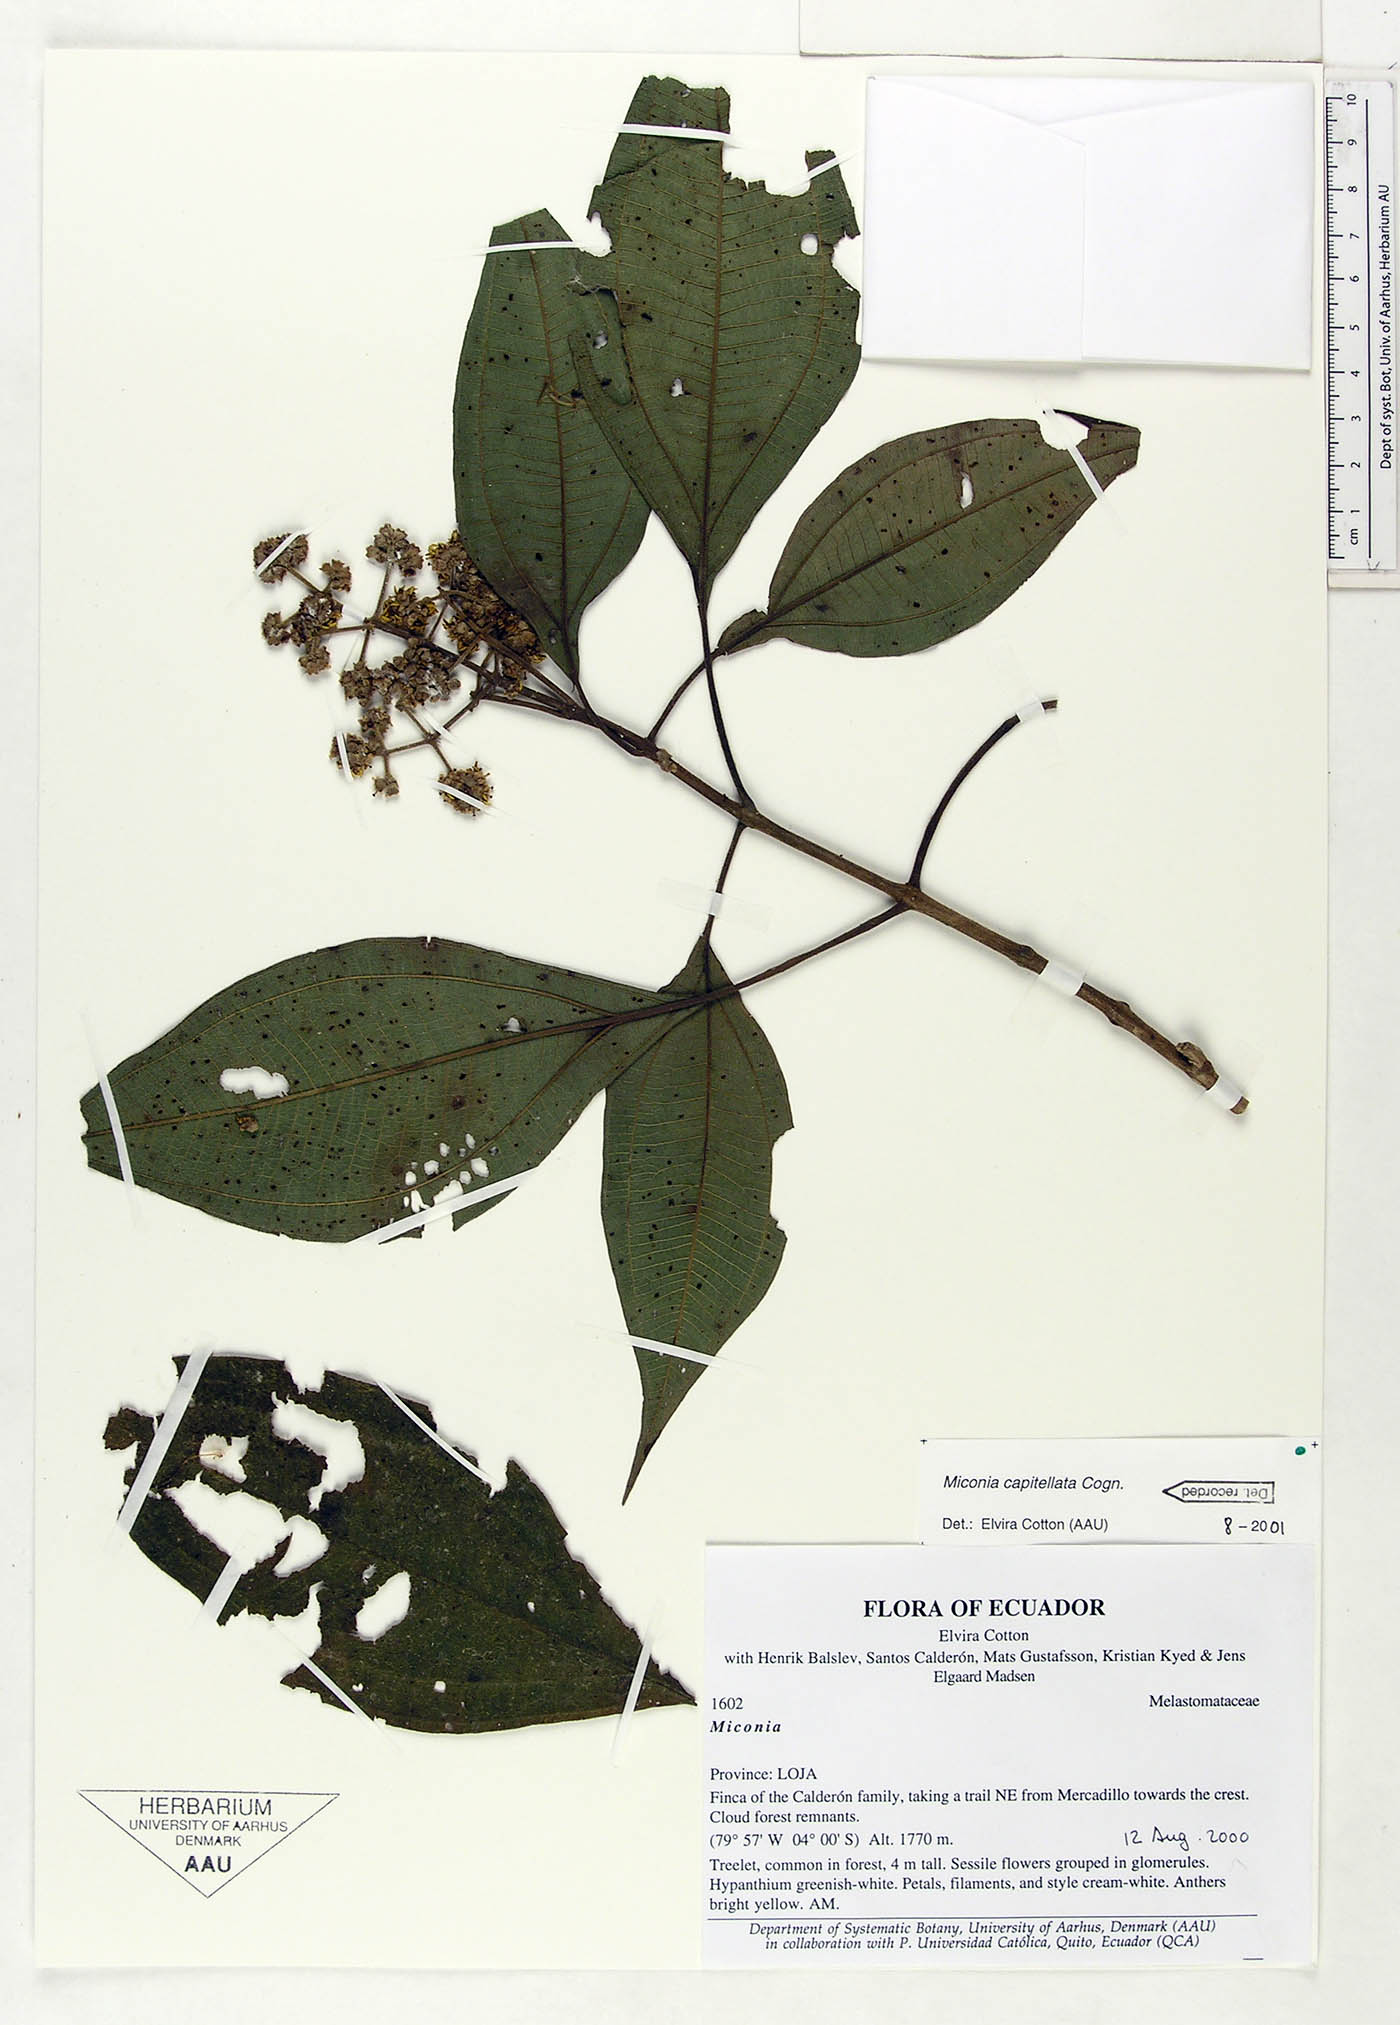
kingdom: Plantae
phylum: Tracheophyta
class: Magnoliopsida
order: Myrtales
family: Melastomataceae
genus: Miconia
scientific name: Miconia capitellata
